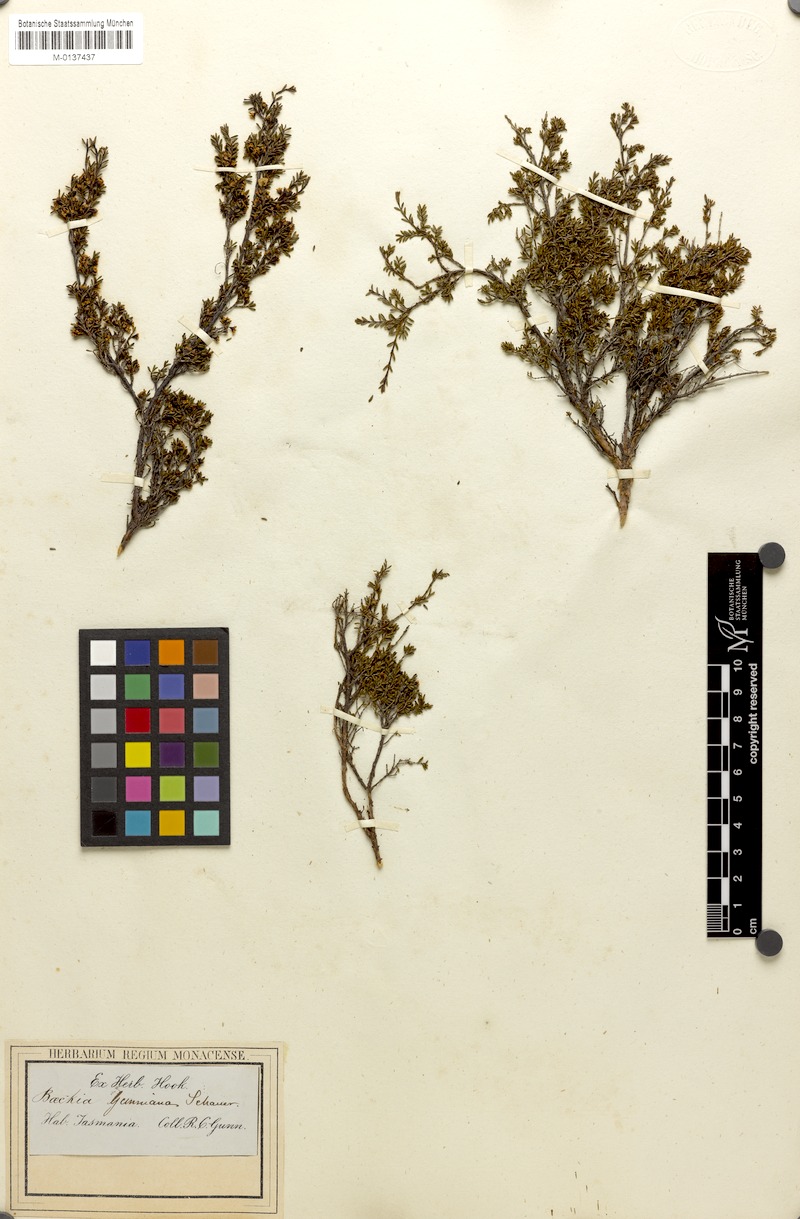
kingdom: Plantae
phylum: Tracheophyta
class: Magnoliopsida
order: Myrtales
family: Myrtaceae
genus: Baeckea
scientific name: Baeckea gunniana
